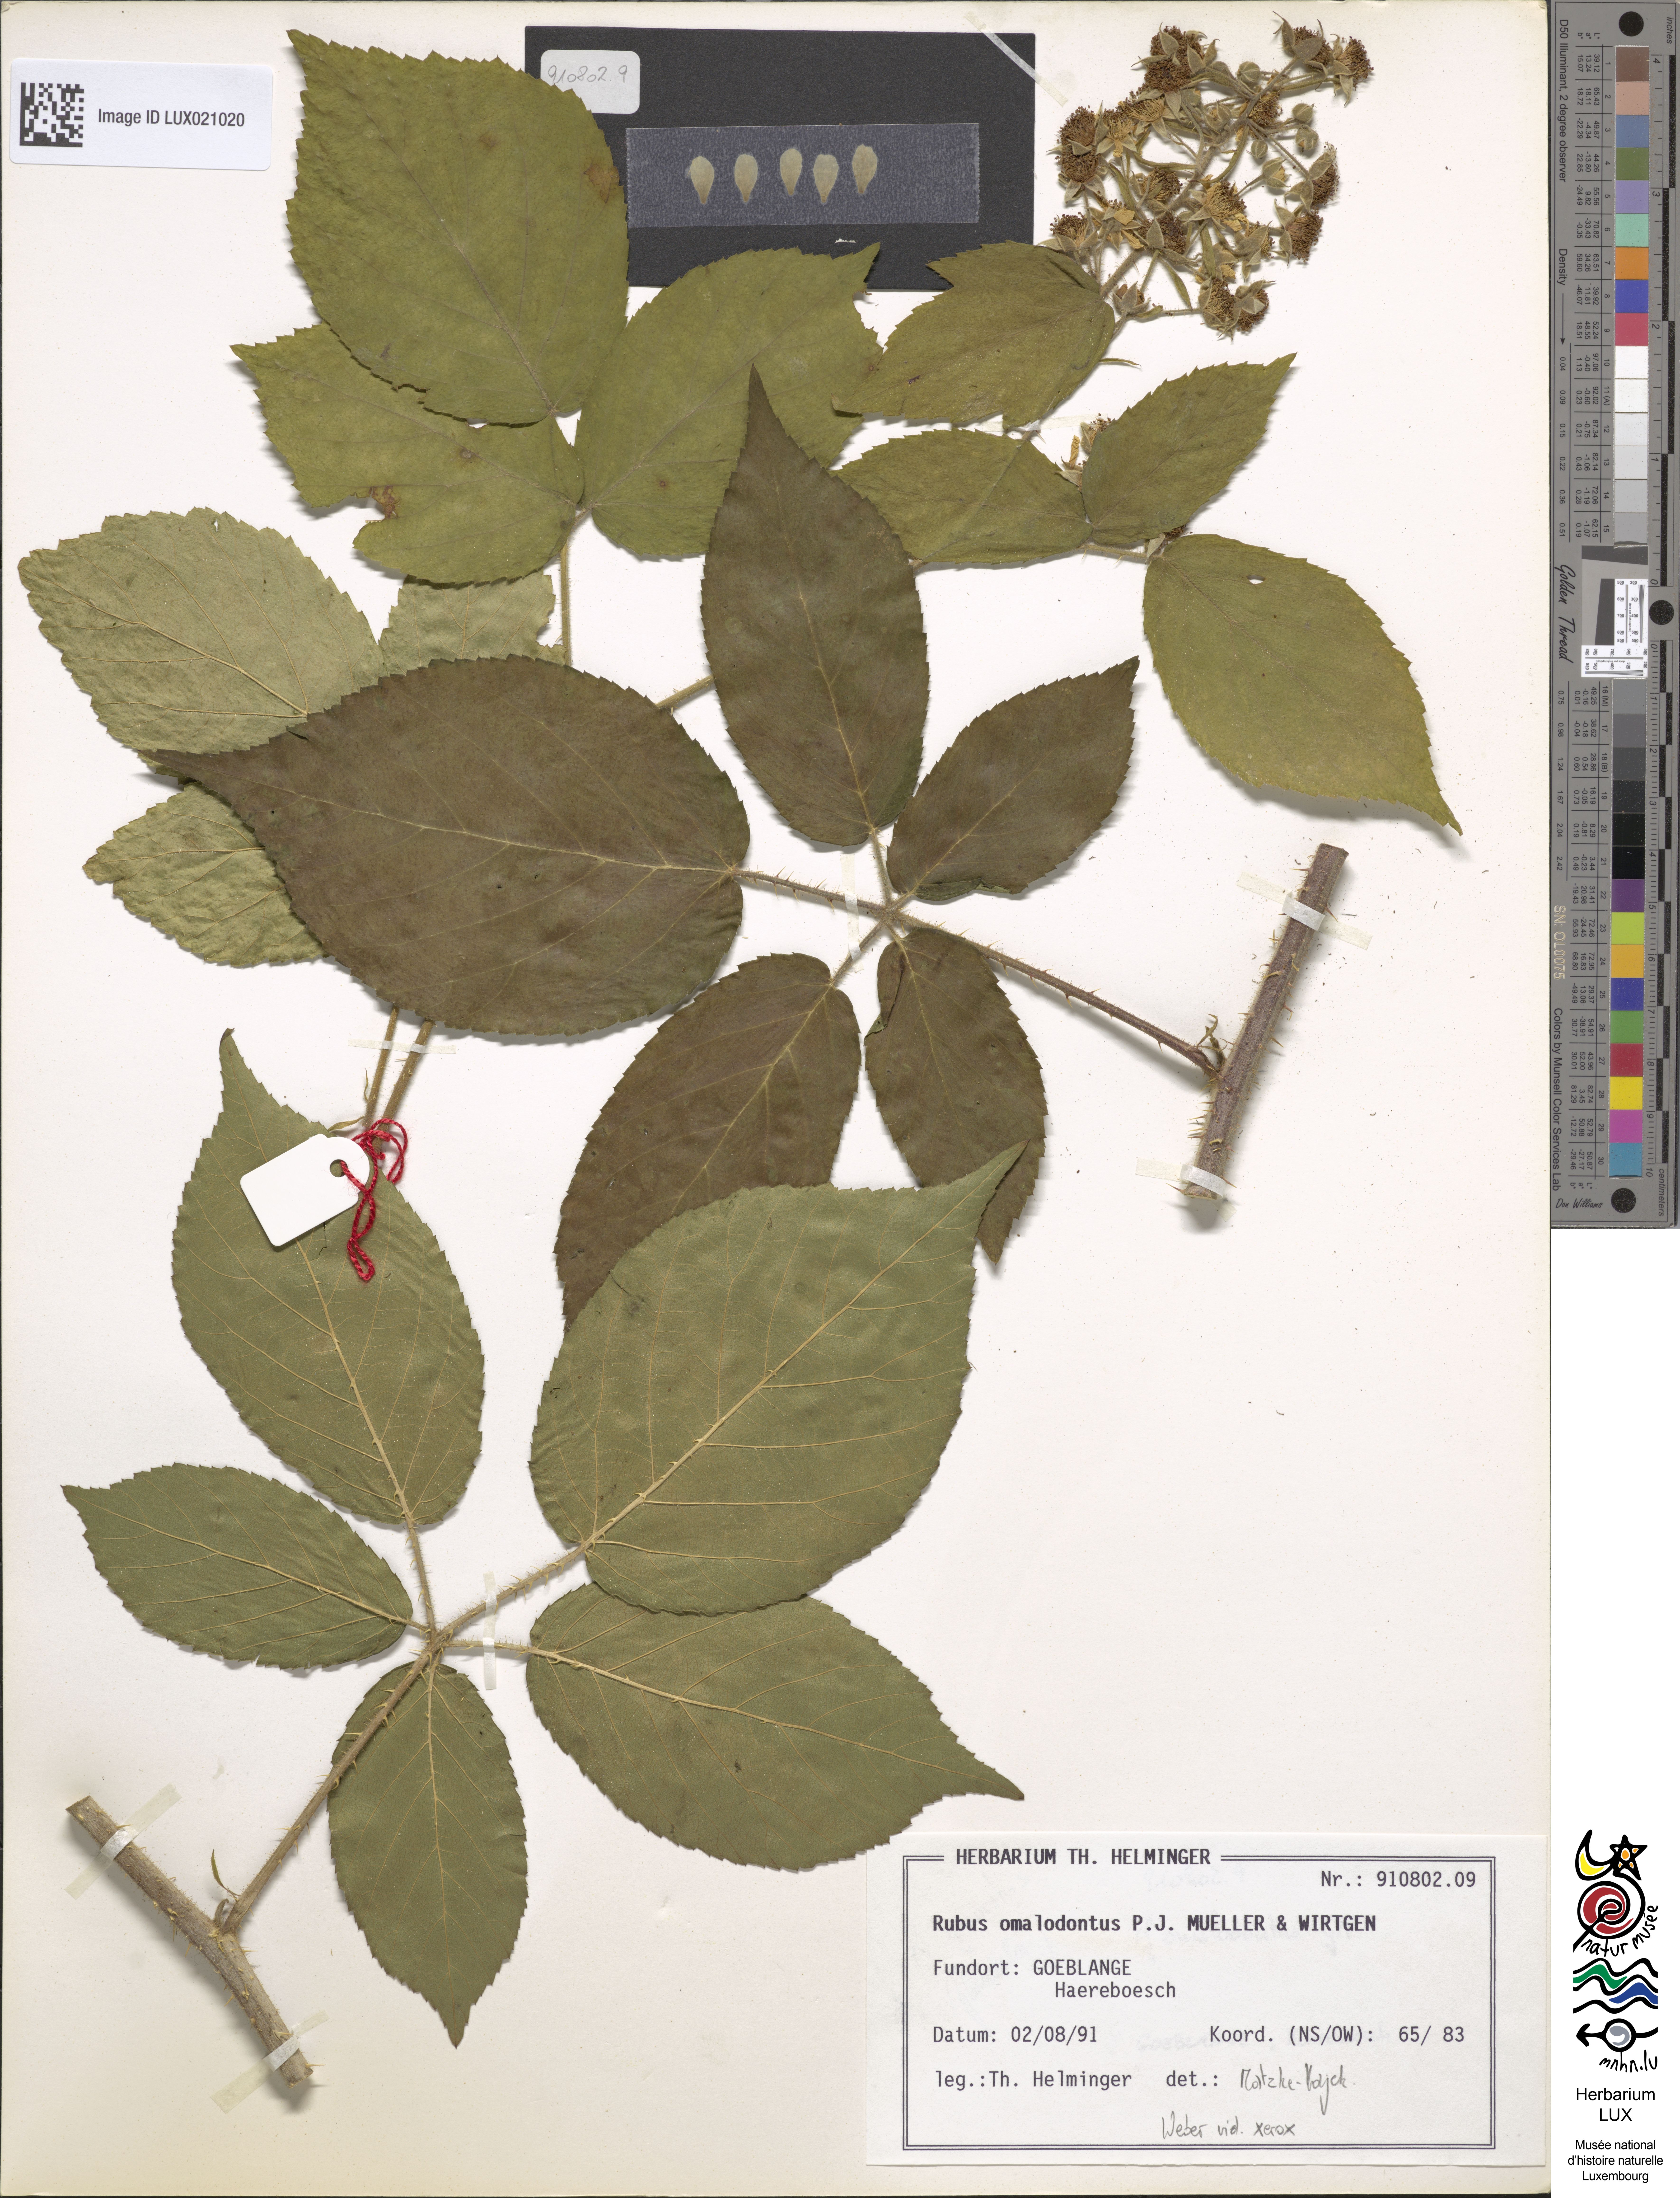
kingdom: Plantae
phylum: Tracheophyta
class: Magnoliopsida
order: Rosales
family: Rosaceae
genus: Rubus
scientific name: Rubus omalodontos
